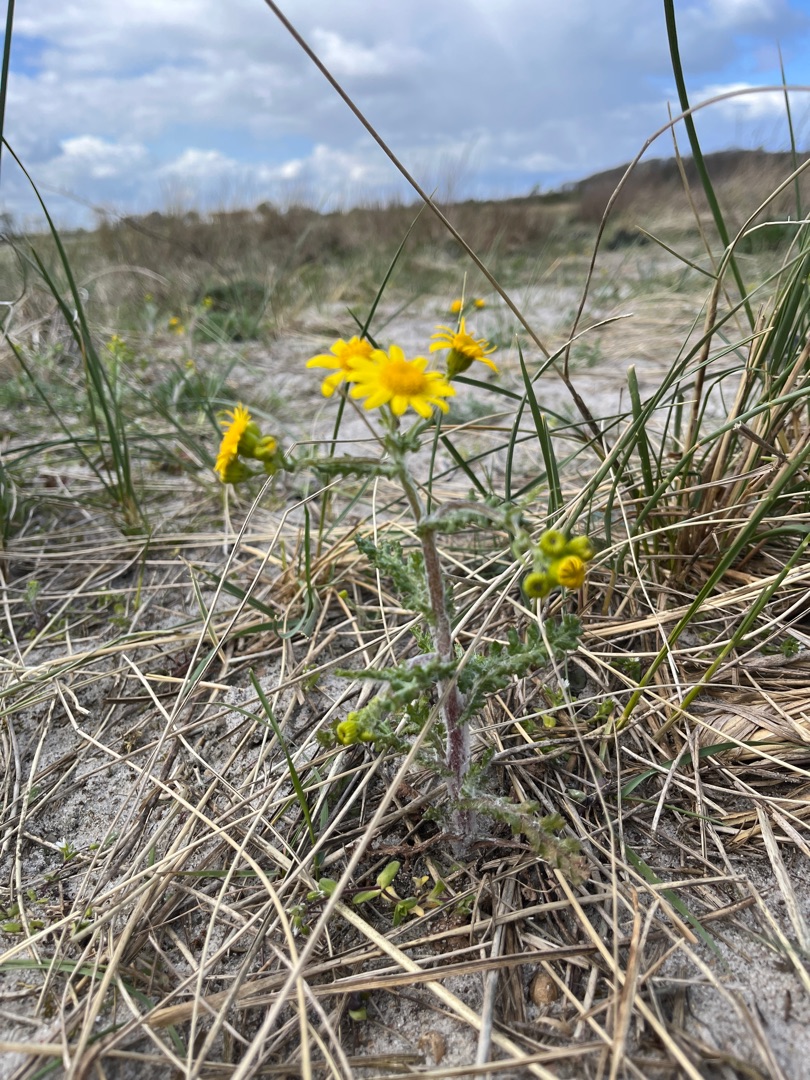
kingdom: Plantae
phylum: Tracheophyta
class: Magnoliopsida
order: Asterales
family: Asteraceae
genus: Senecio
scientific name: Senecio leucanthemifolius
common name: Vår-brandbæger
